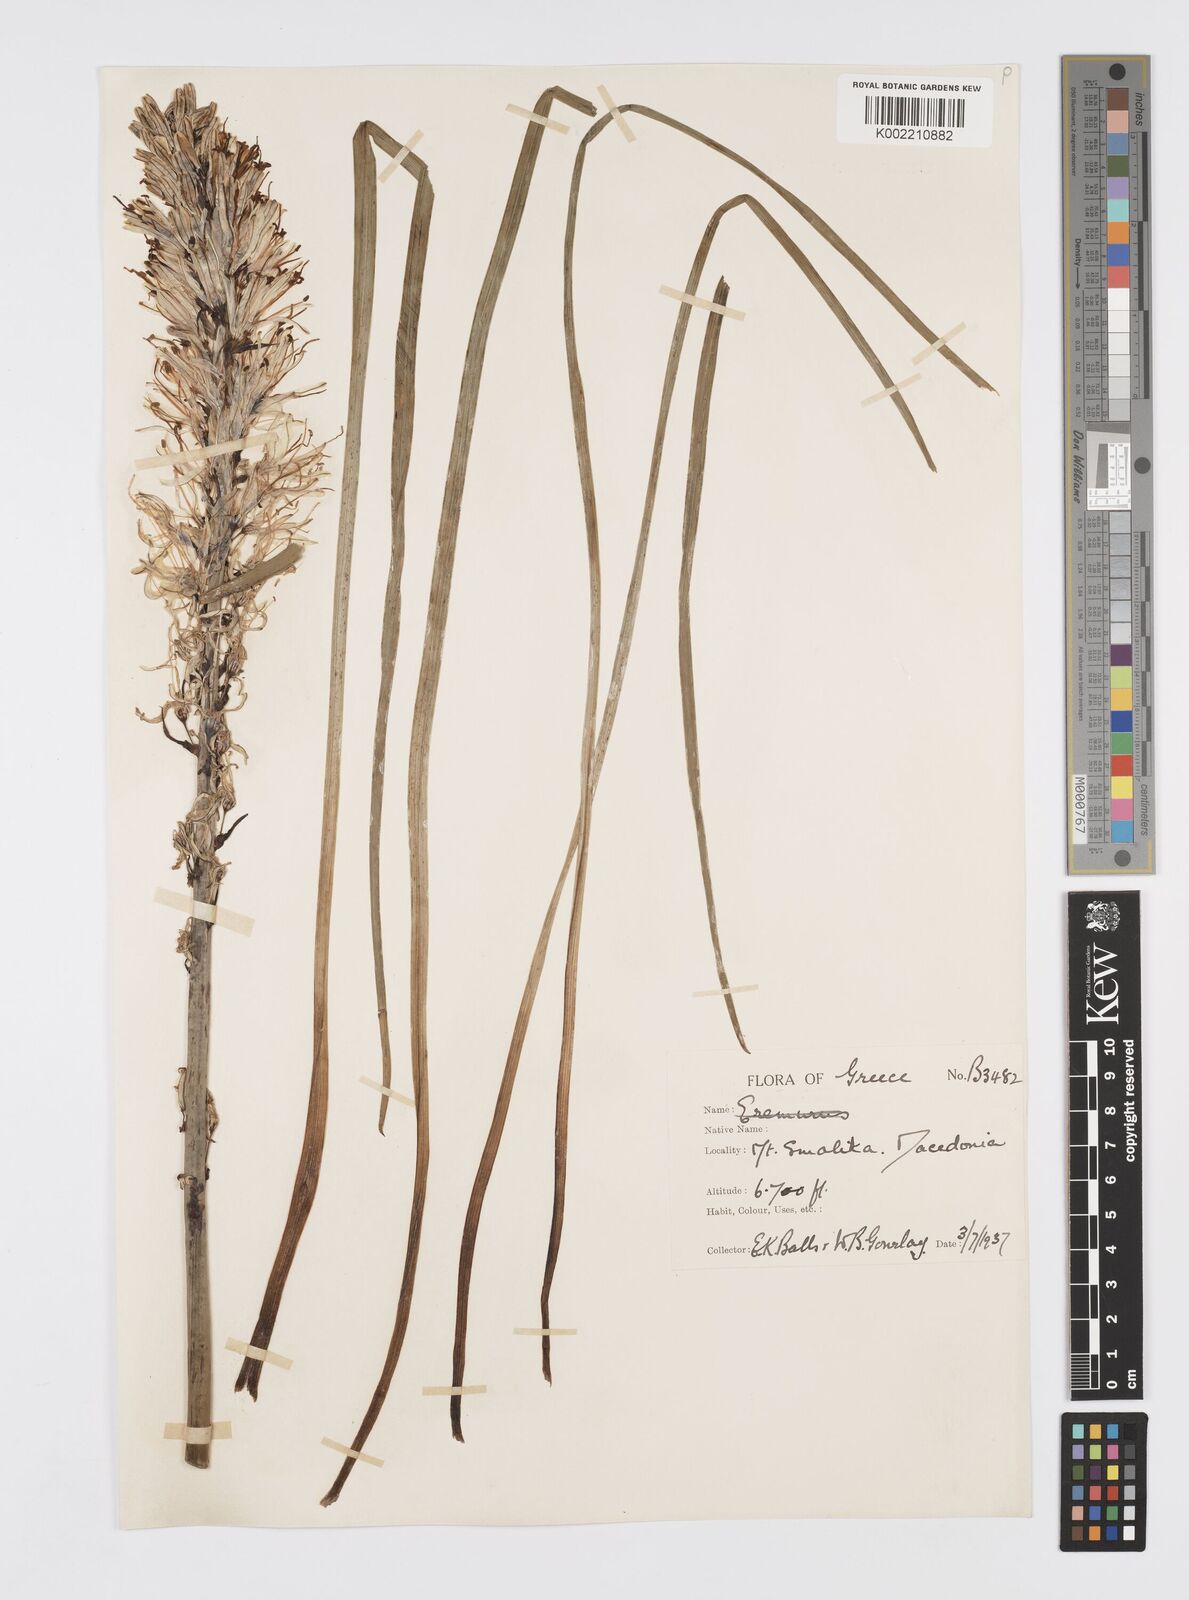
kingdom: Plantae
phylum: Tracheophyta
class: Liliopsida
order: Asparagales
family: Asphodelaceae
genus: Asphodelus
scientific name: Asphodelus albus
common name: White asphodel
